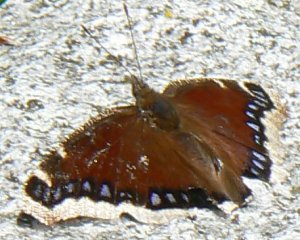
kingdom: Animalia
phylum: Arthropoda
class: Insecta
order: Lepidoptera
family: Nymphalidae
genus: Nymphalis
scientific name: Nymphalis antiopa
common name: Mourning Cloak
